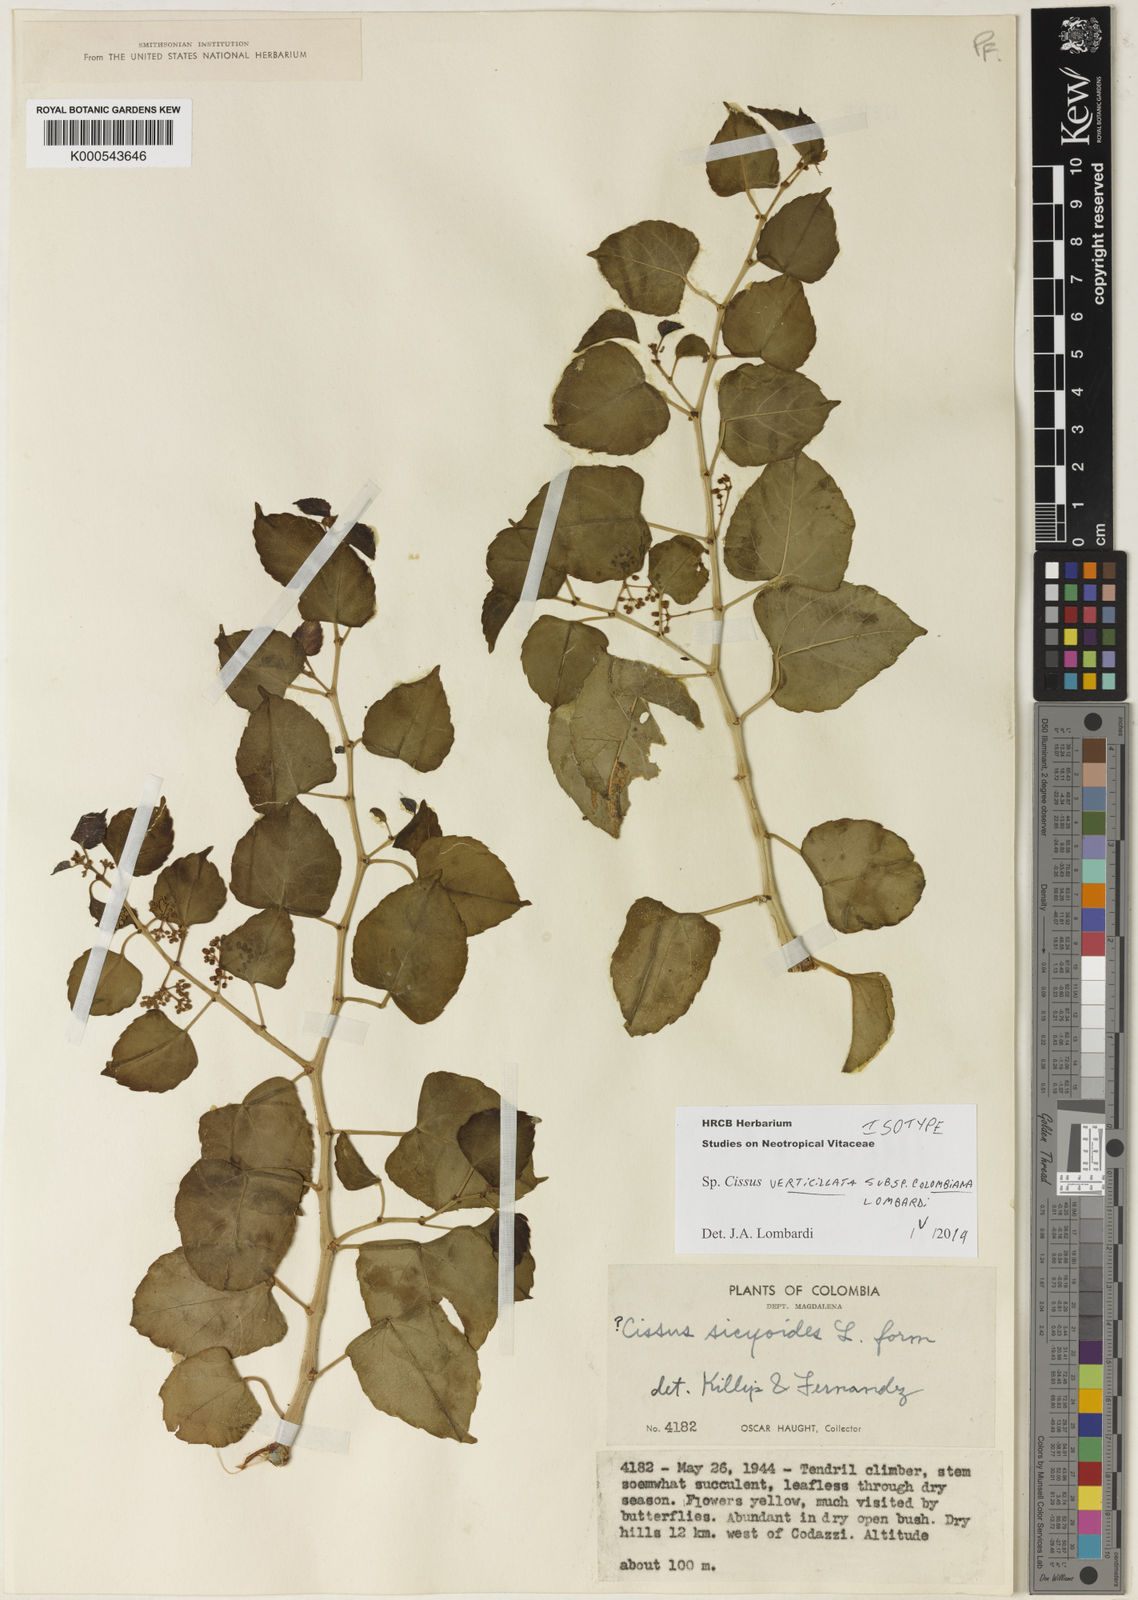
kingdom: Plantae
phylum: Tracheophyta
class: Magnoliopsida
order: Vitales
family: Vitaceae
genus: Cissus
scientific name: Cissus verticillata
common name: Princess vine
